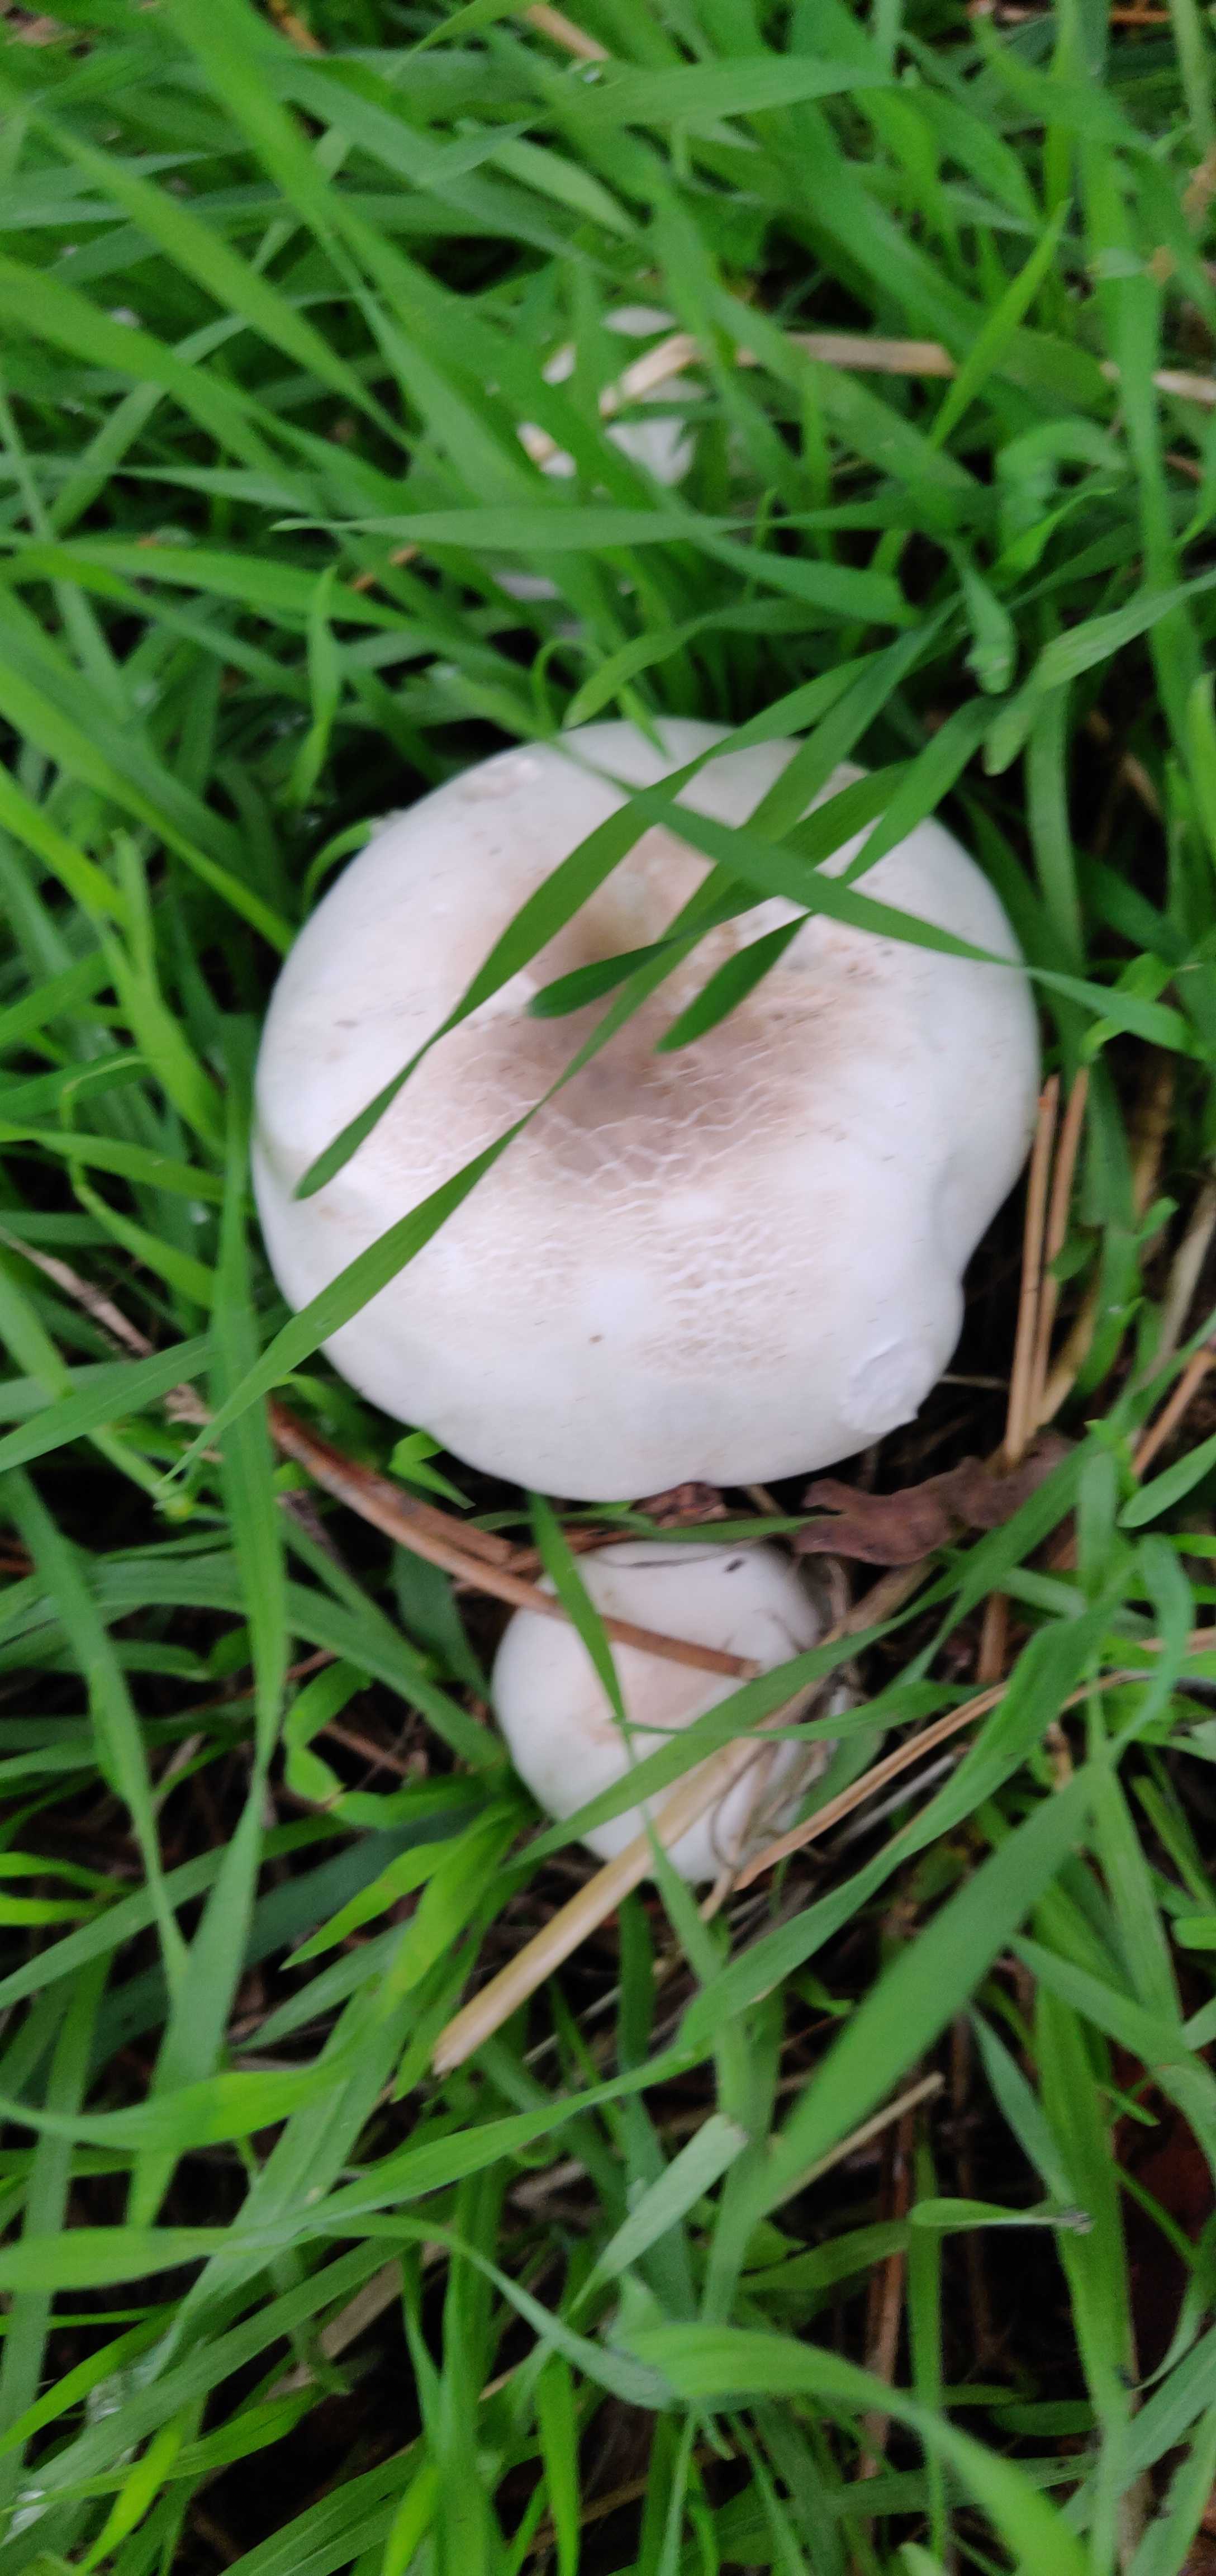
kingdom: Fungi
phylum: Basidiomycota
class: Agaricomycetes
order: Agaricales
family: Agaricaceae
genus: Agaricus
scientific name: Agaricus xanthodermus
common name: karbol-champignon
